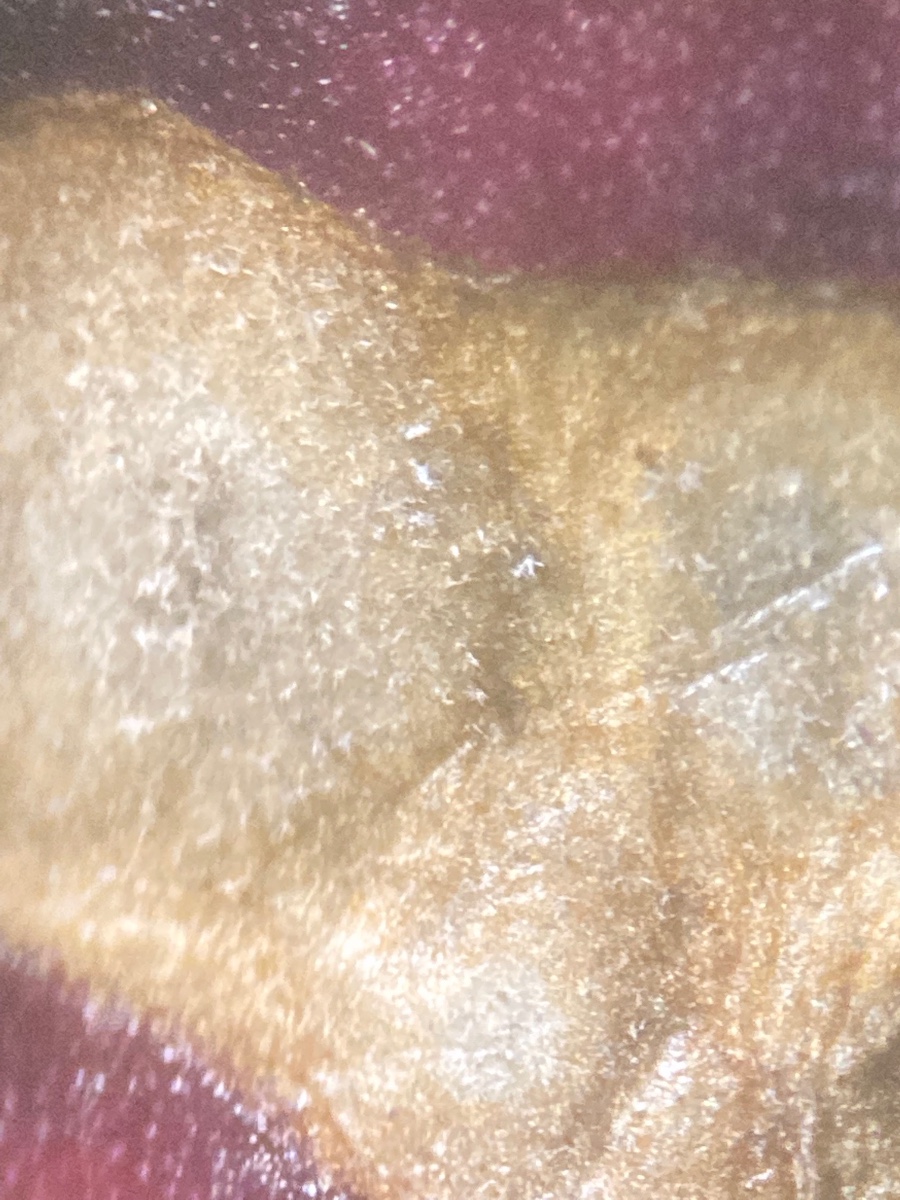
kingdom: Fungi
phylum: Ascomycota
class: Dothideomycetes
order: Mycosphaerellales
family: Mycosphaerellaceae
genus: Cercospora
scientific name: Cercospora beticola
